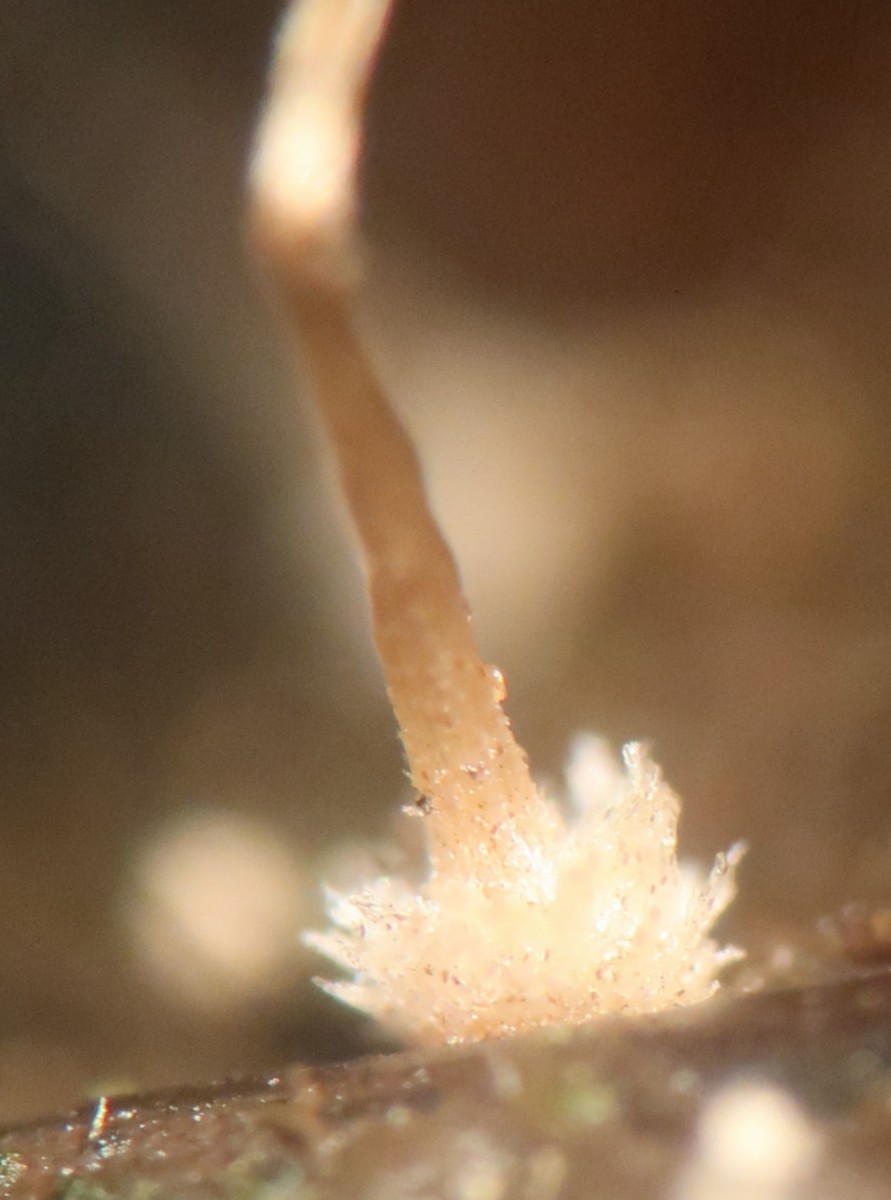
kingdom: Fungi
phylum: Basidiomycota
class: Agaricomycetes
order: Agaricales
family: Psathyrellaceae
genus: Narcissea
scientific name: Narcissea
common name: blækhat
